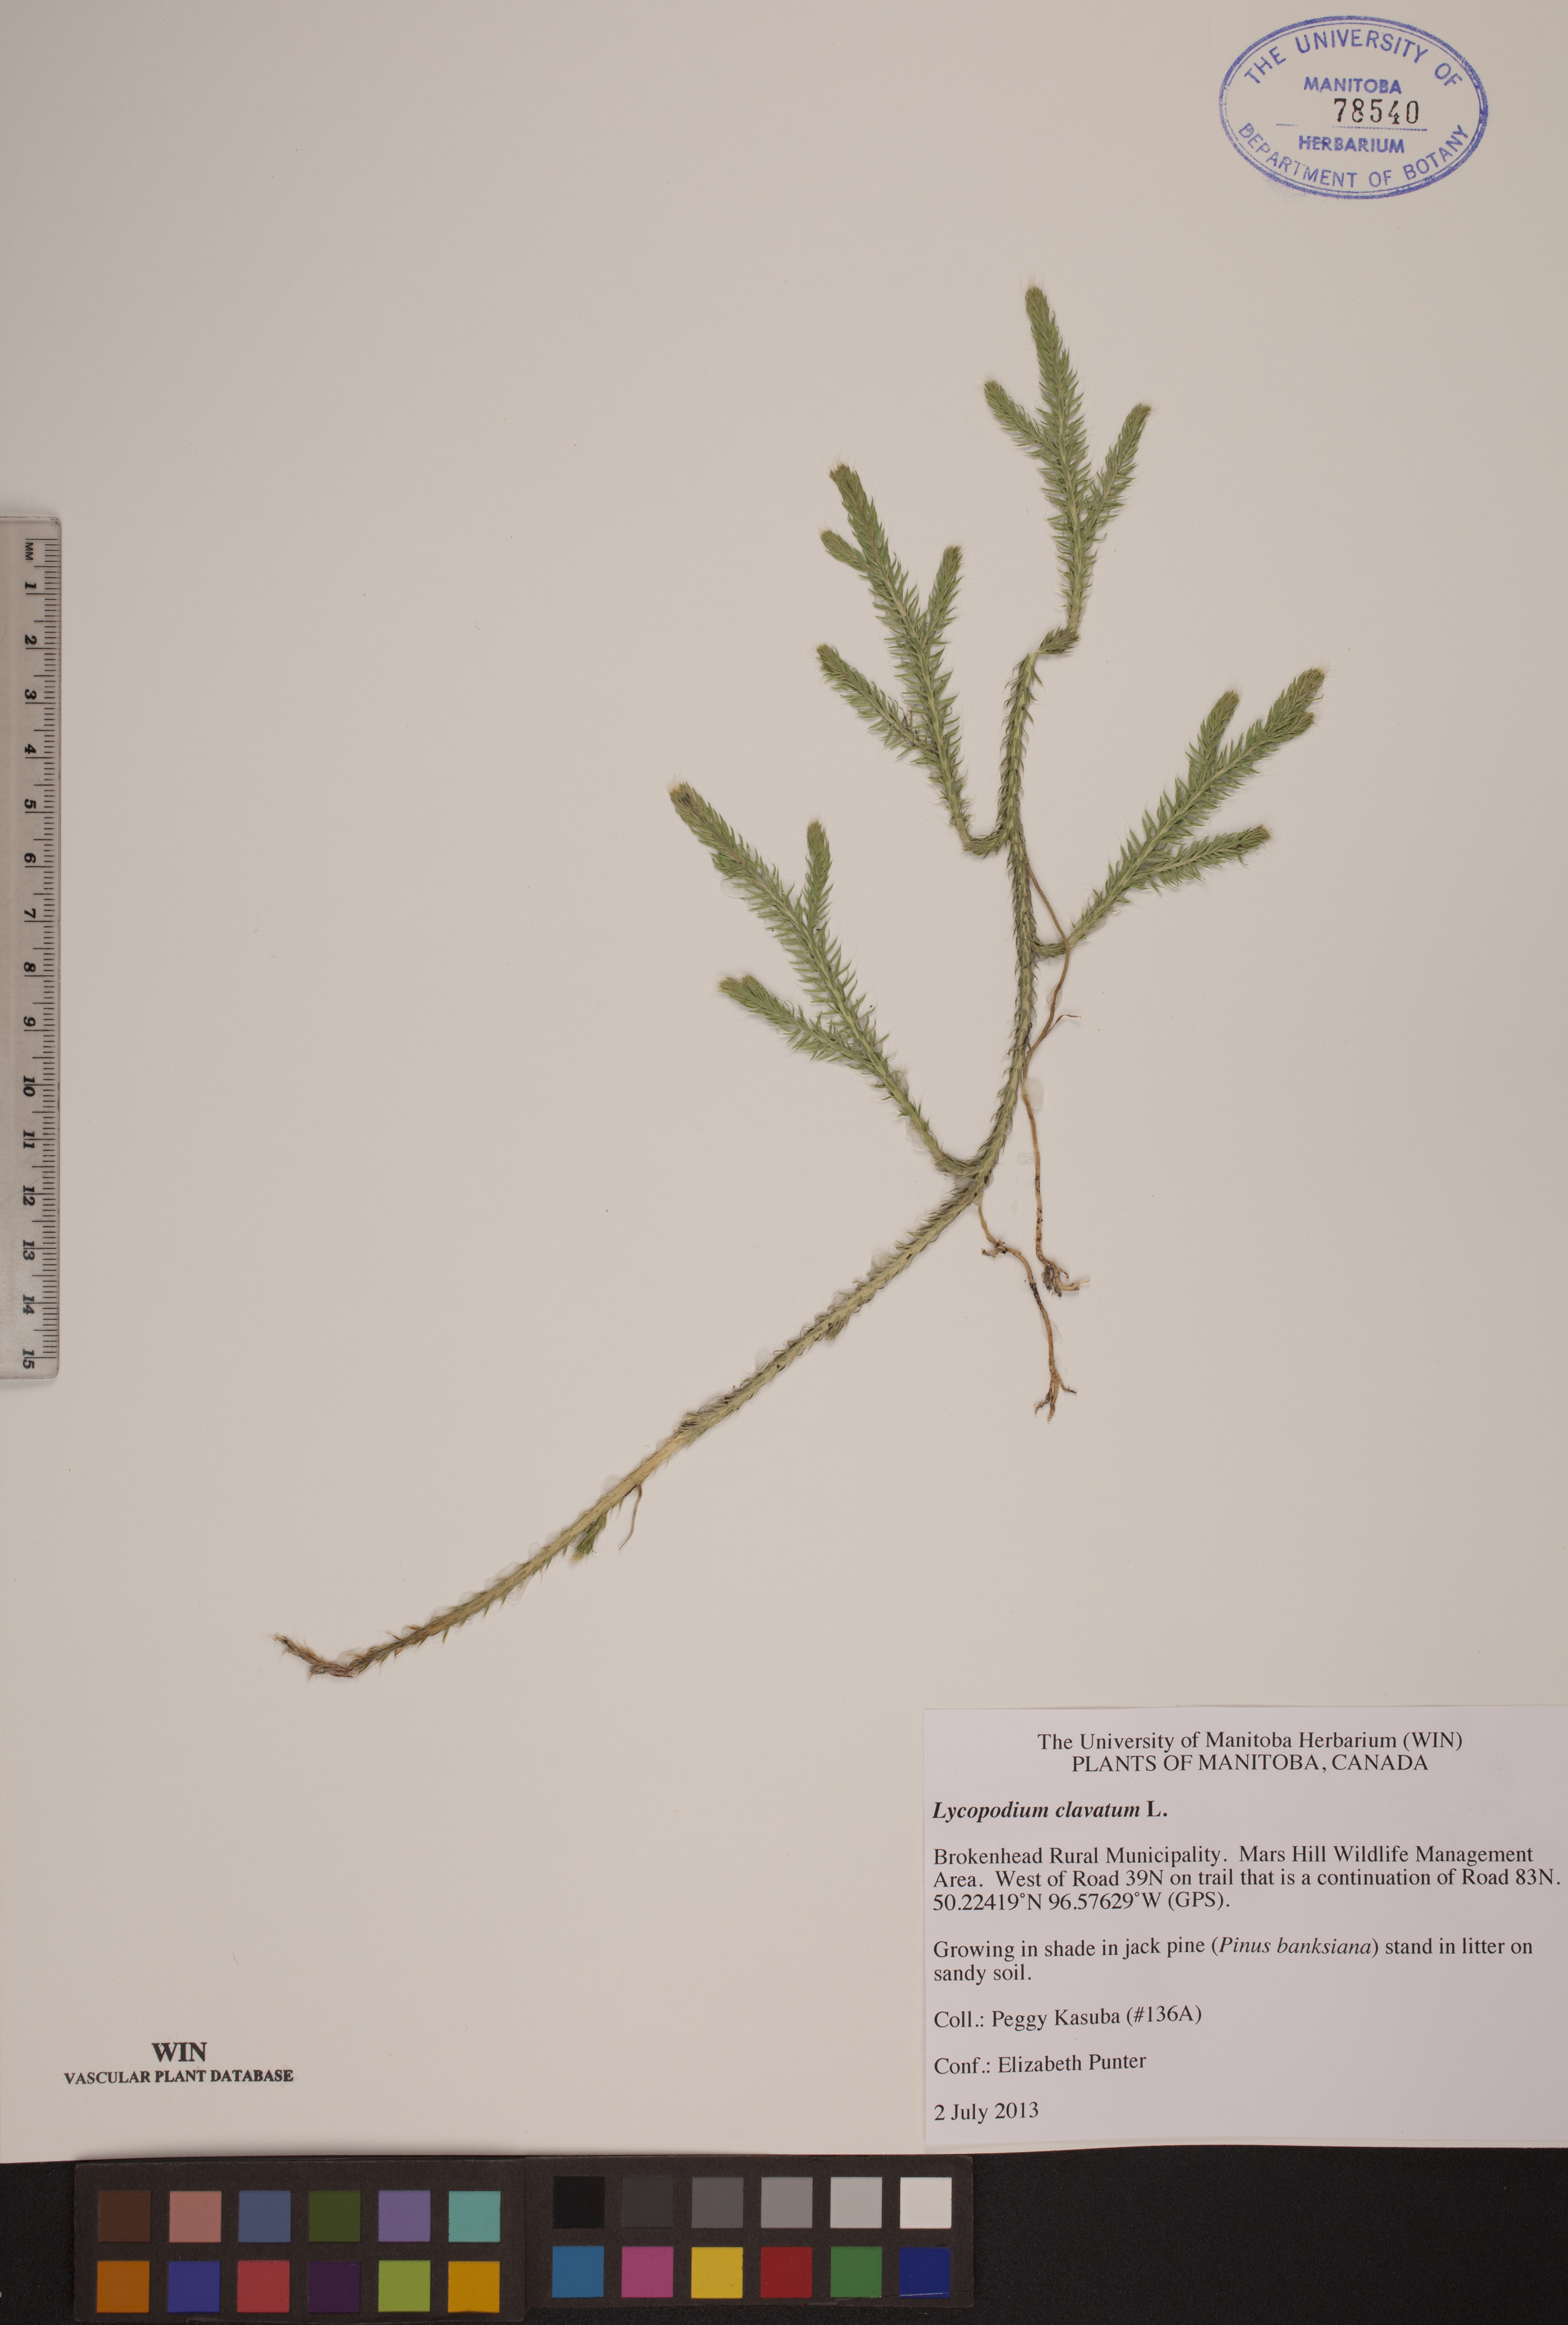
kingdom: Plantae
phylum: Tracheophyta
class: Lycopodiopsida
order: Lycopodiales
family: Lycopodiaceae
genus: Lycopodium
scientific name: Lycopodium clavatum
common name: Stag's-horn clubmoss
